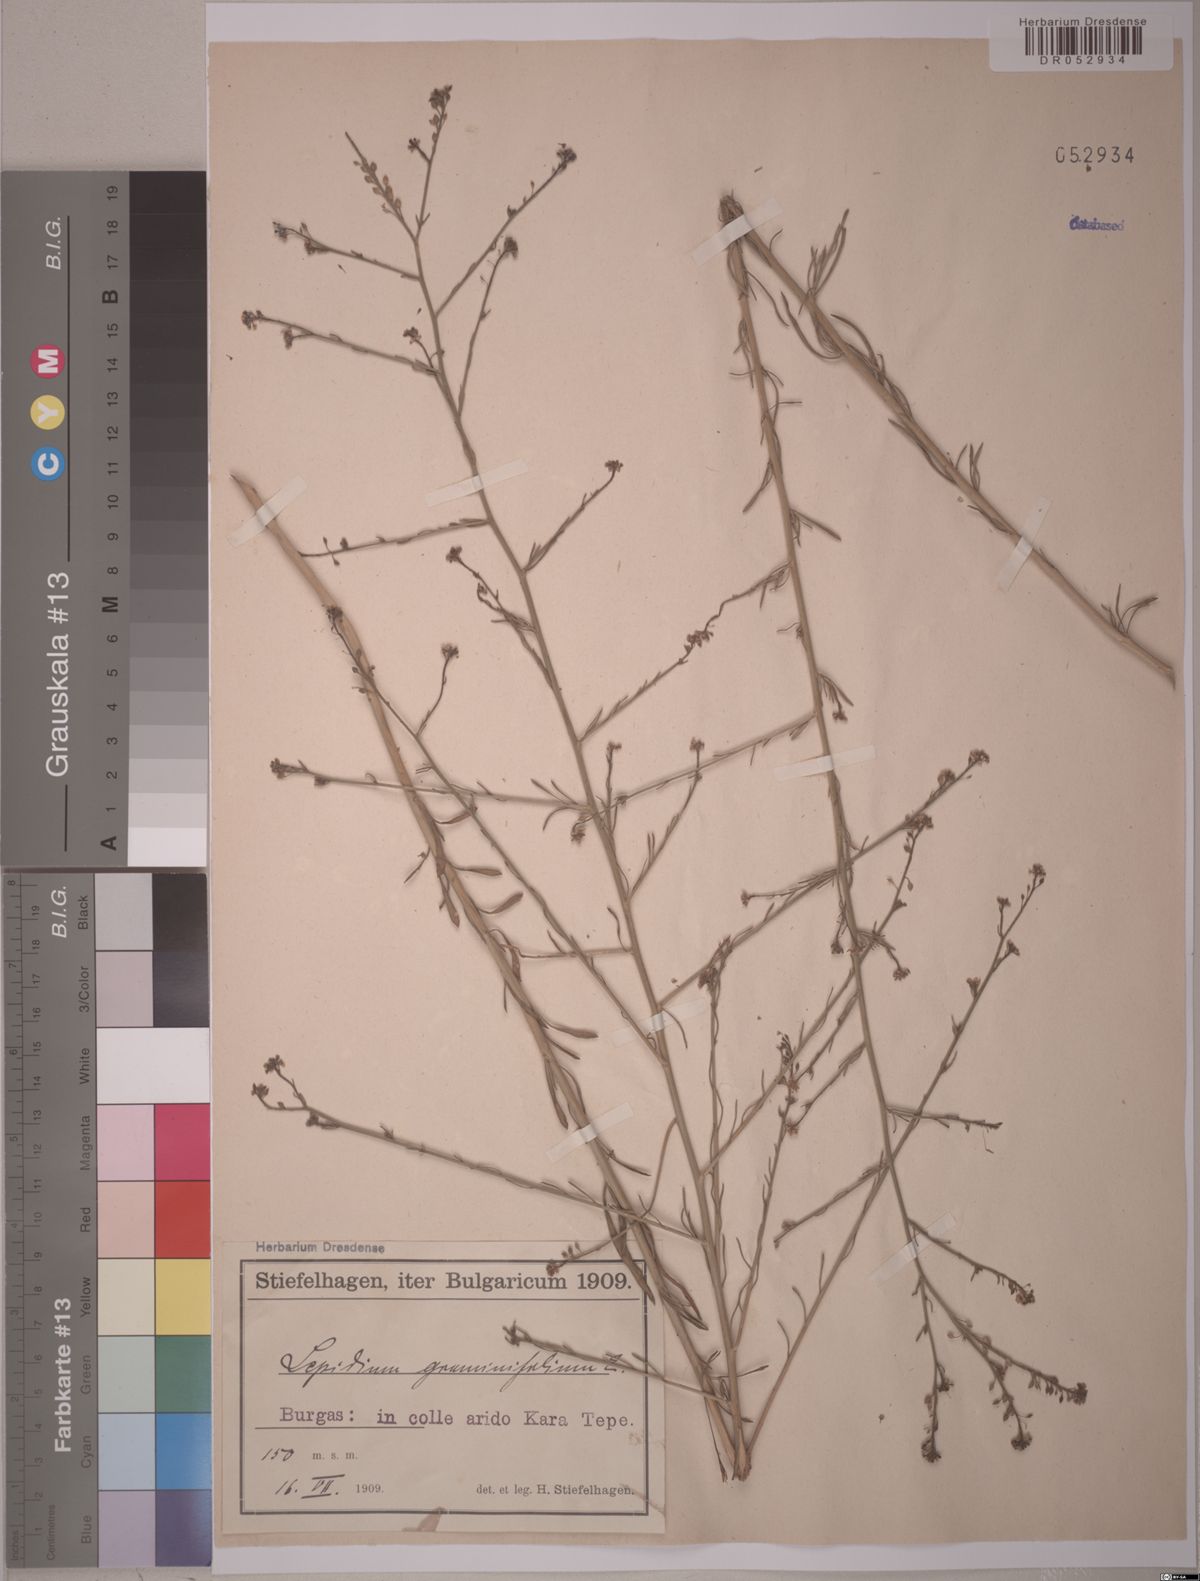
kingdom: Plantae
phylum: Tracheophyta
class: Magnoliopsida
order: Brassicales
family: Brassicaceae
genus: Lepidium
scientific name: Lepidium graminifolium
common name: Tall pepperwort
